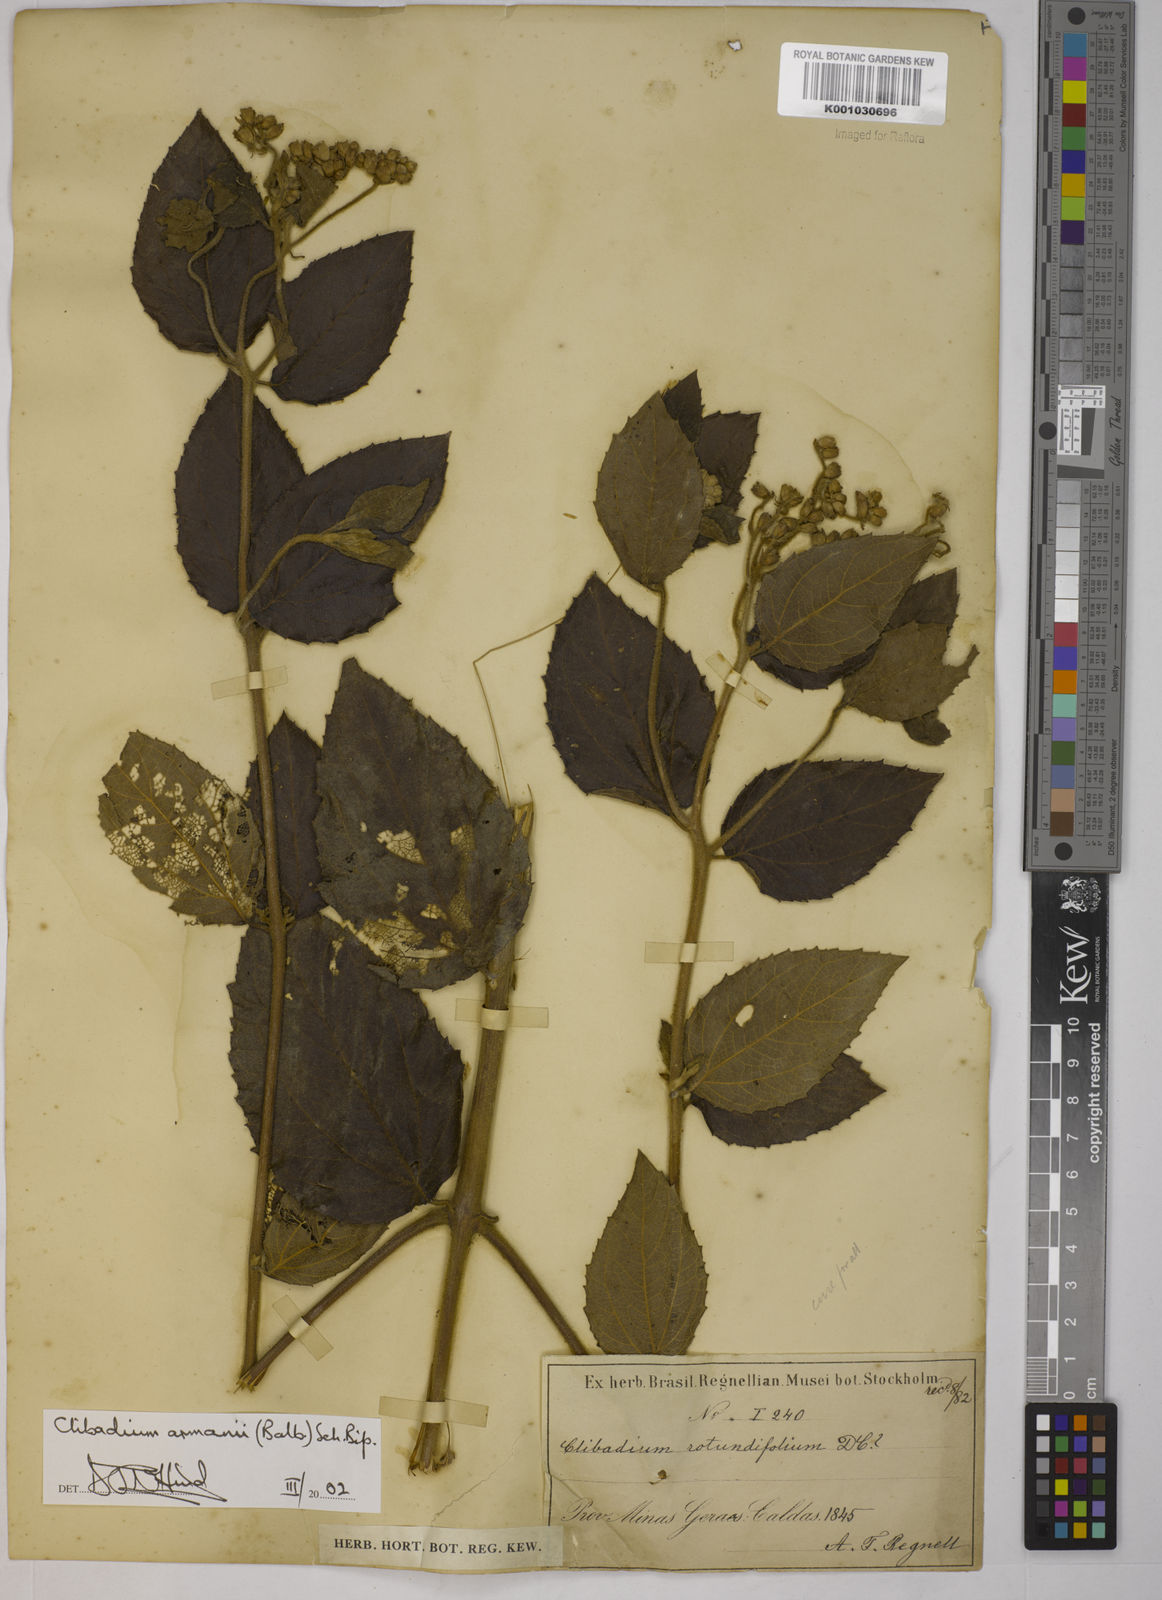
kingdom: Plantae
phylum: Tracheophyta
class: Magnoliopsida
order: Asterales
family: Asteraceae
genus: Clibadium
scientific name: Clibadium armanii
